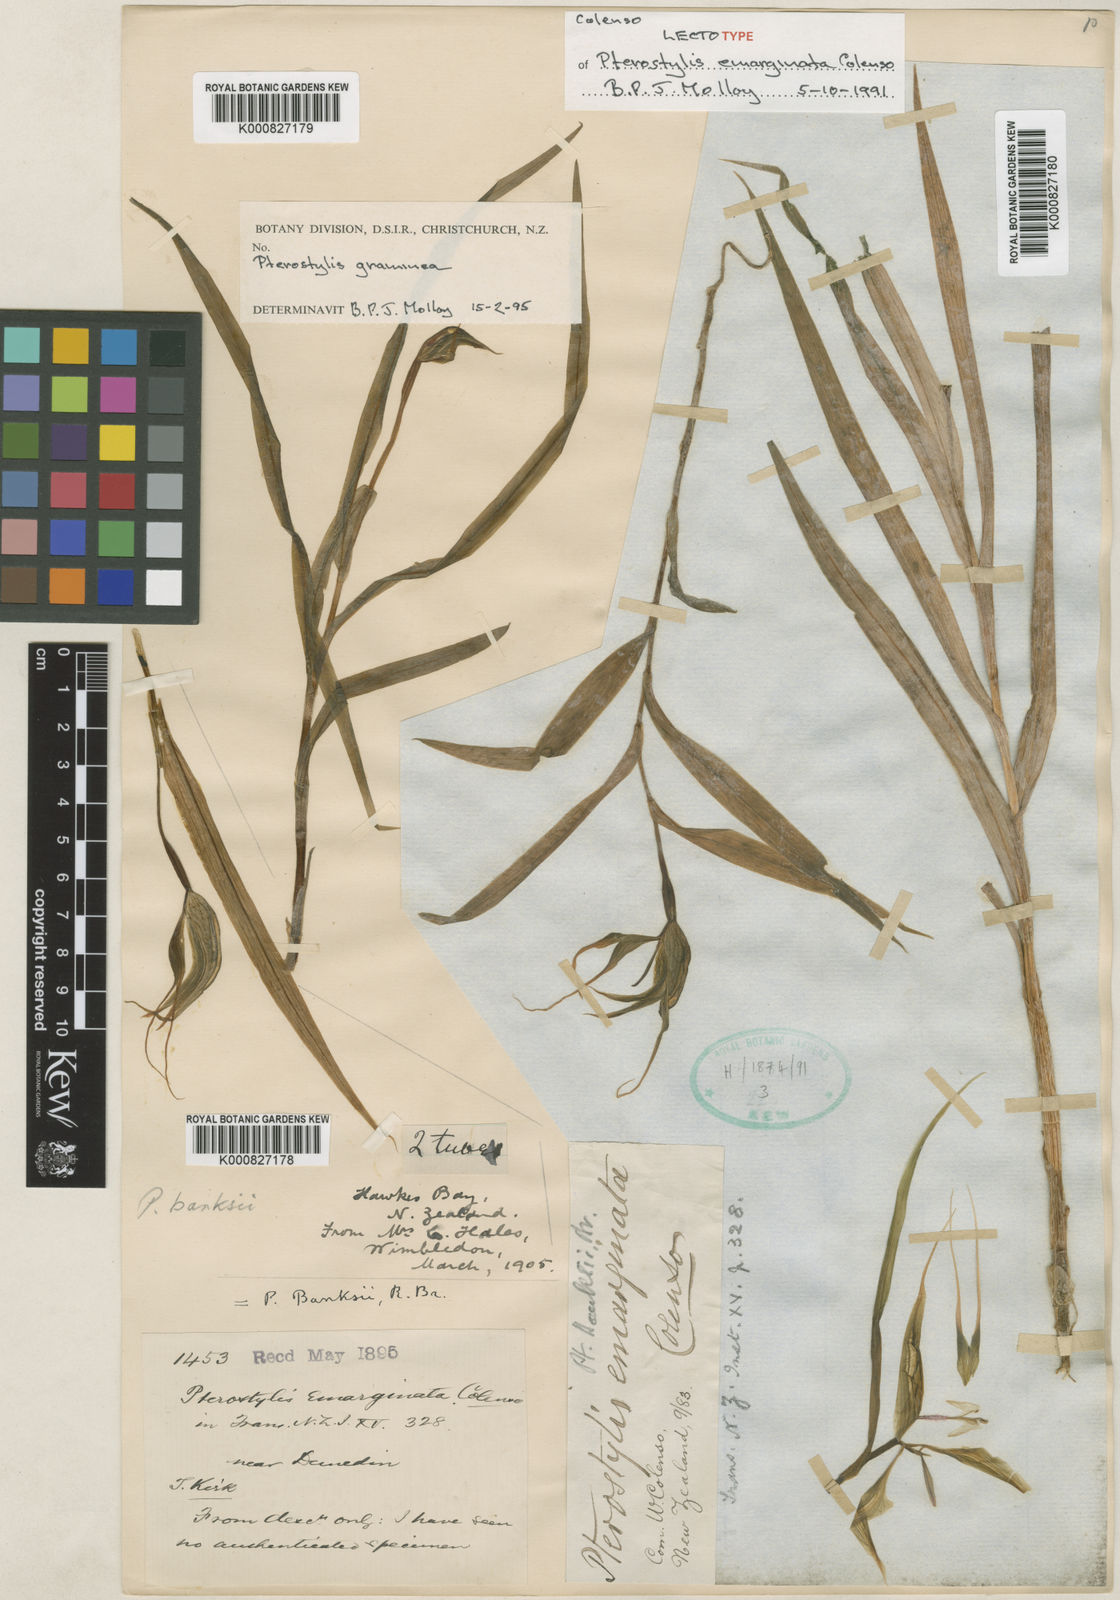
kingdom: Plantae
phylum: Tracheophyta
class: Liliopsida
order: Asparagales
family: Orchidaceae
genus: Pterostylis
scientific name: Pterostylis banksii
